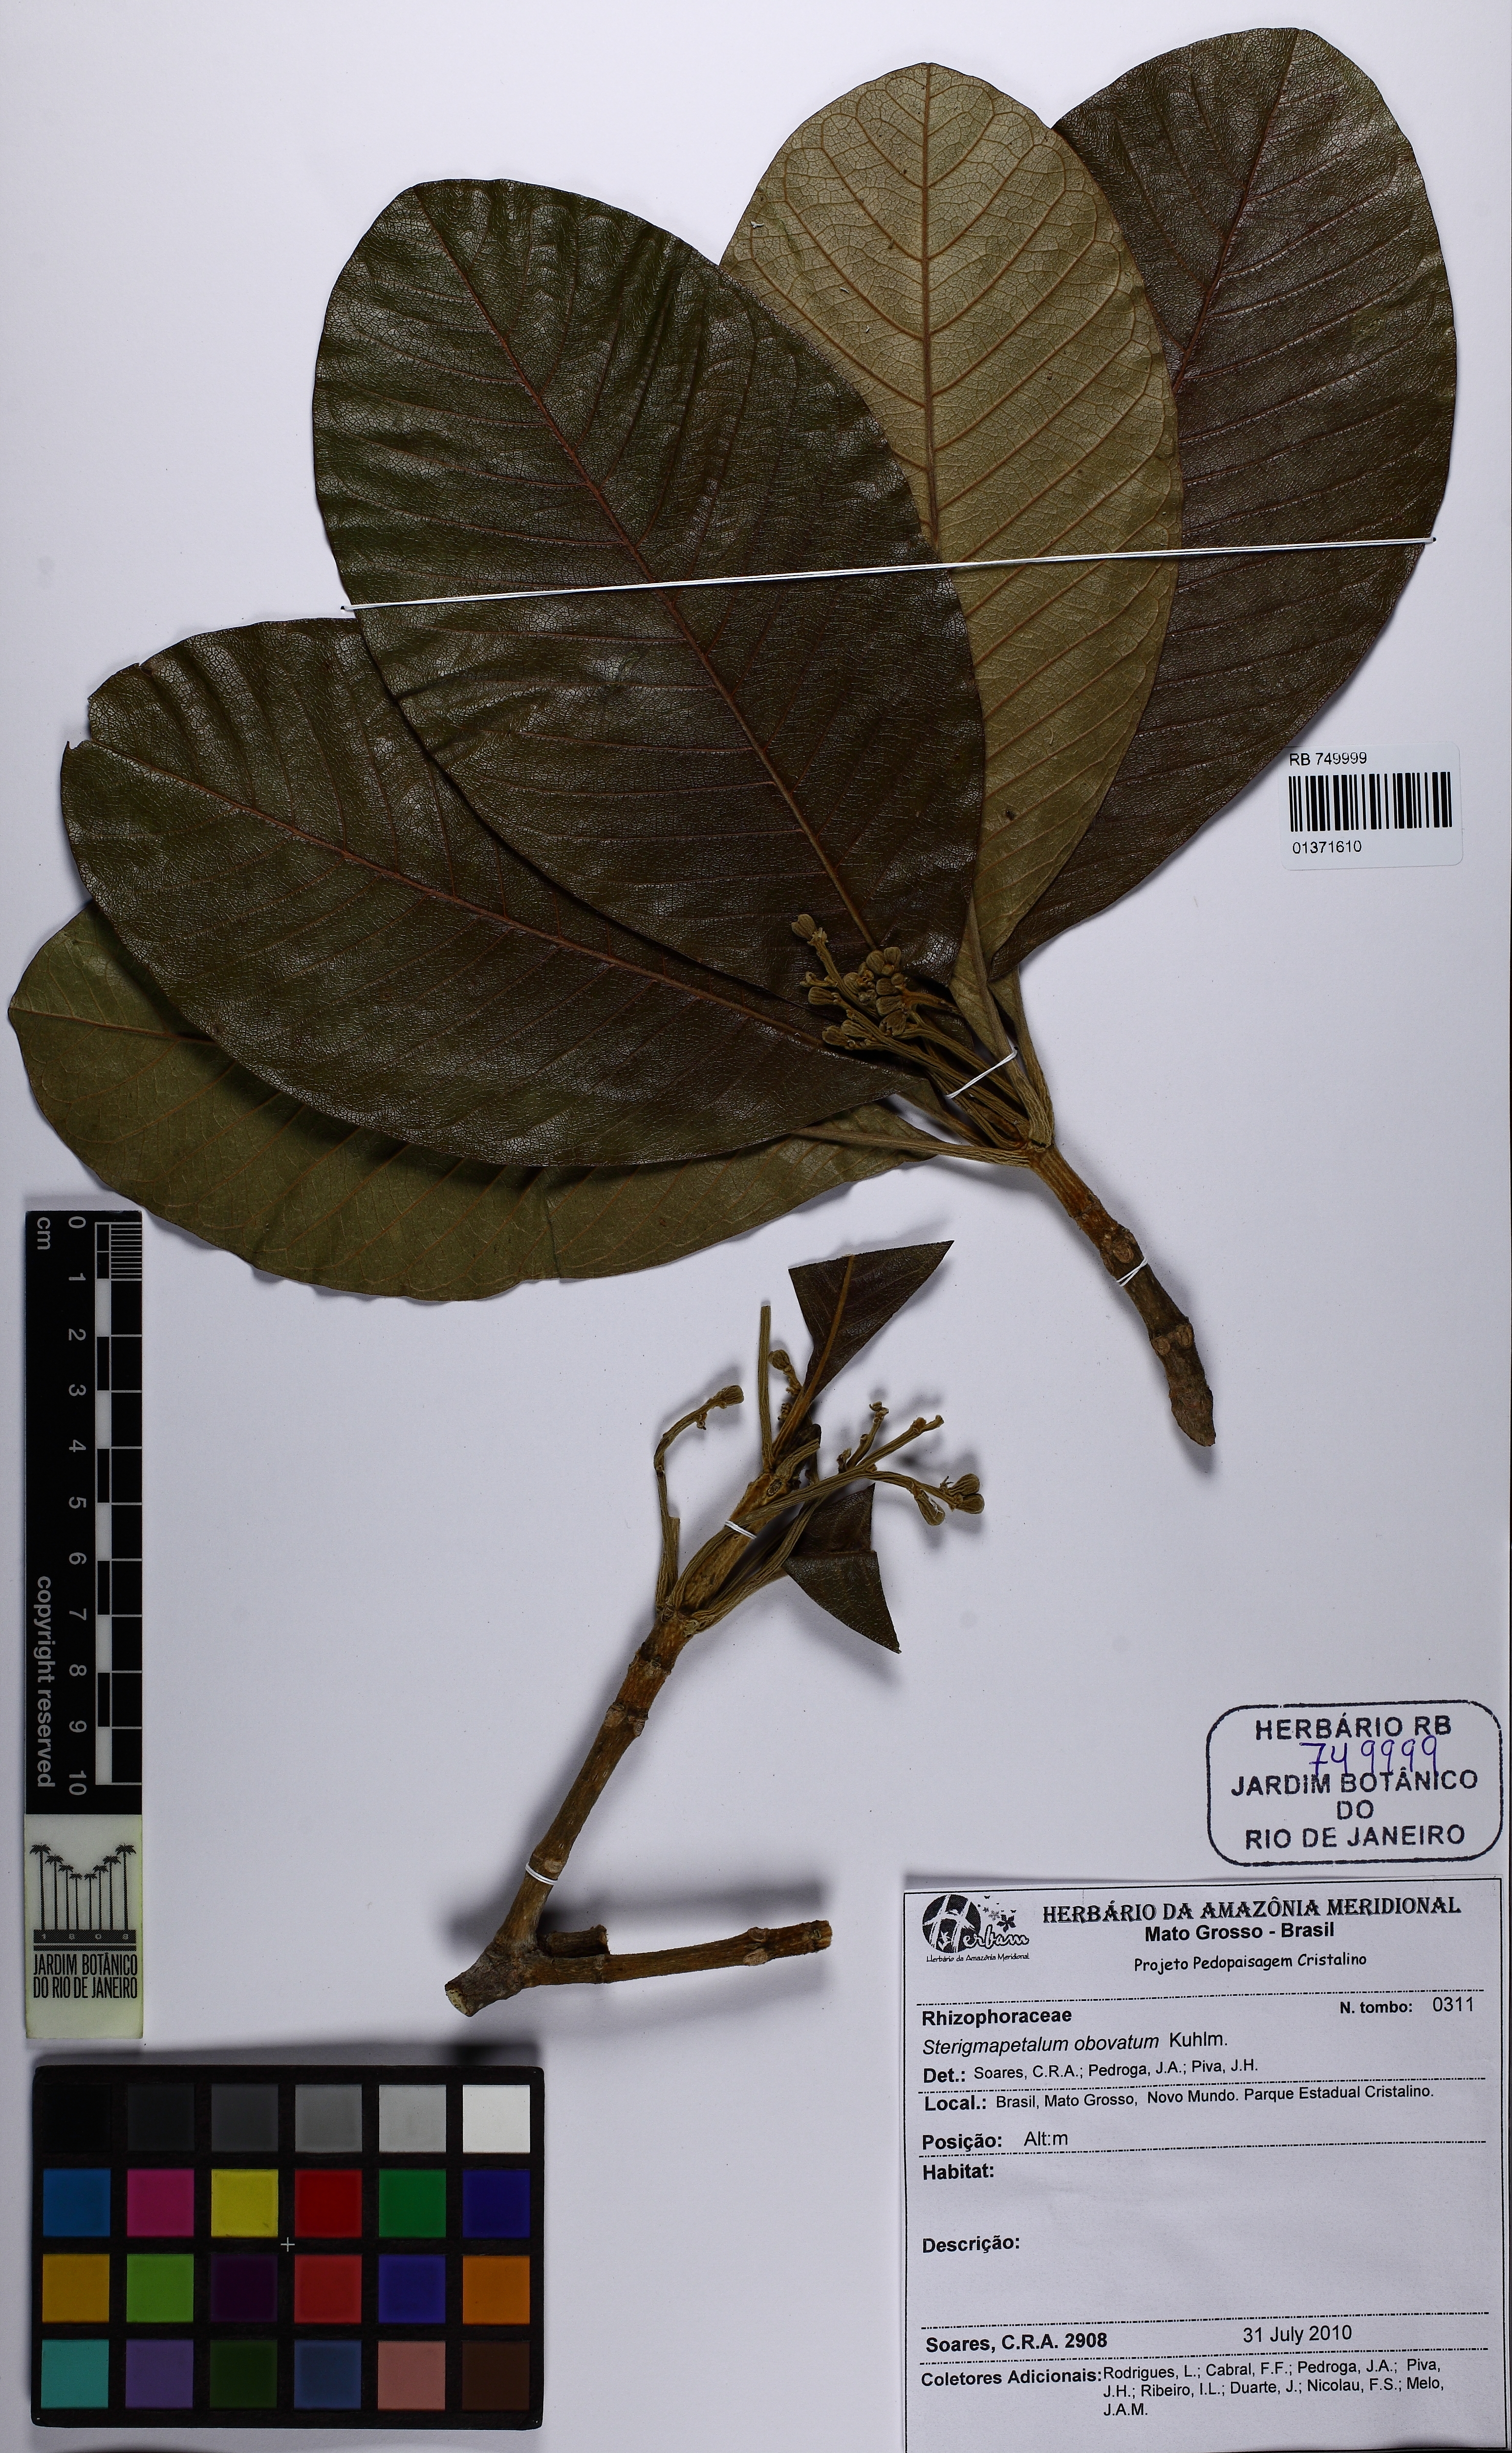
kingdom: Plantae
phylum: Tracheophyta
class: Magnoliopsida
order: Malpighiales
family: Rhizophoraceae
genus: Sterigmapetalum
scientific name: Sterigmapetalum obovatum
